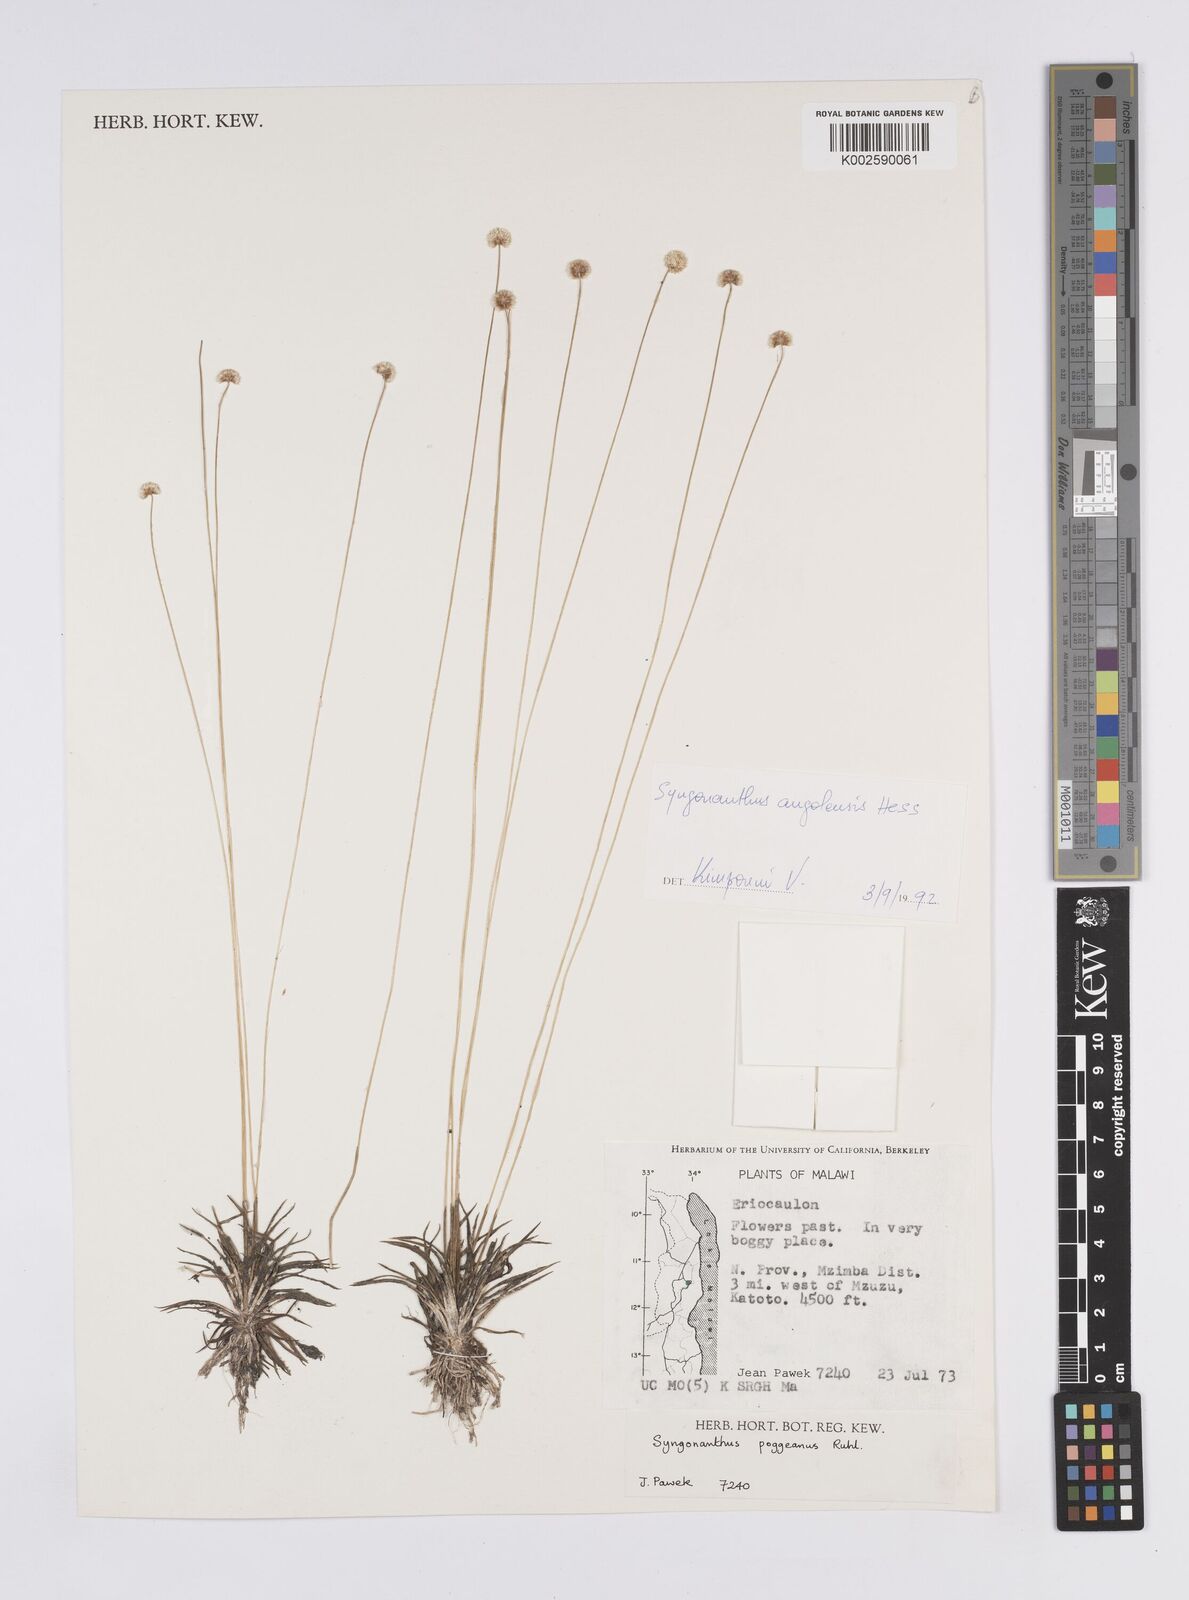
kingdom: Plantae
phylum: Tracheophyta
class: Liliopsida
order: Poales
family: Eriocaulaceae
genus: Syngonanthus
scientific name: Syngonanthus angolensis
